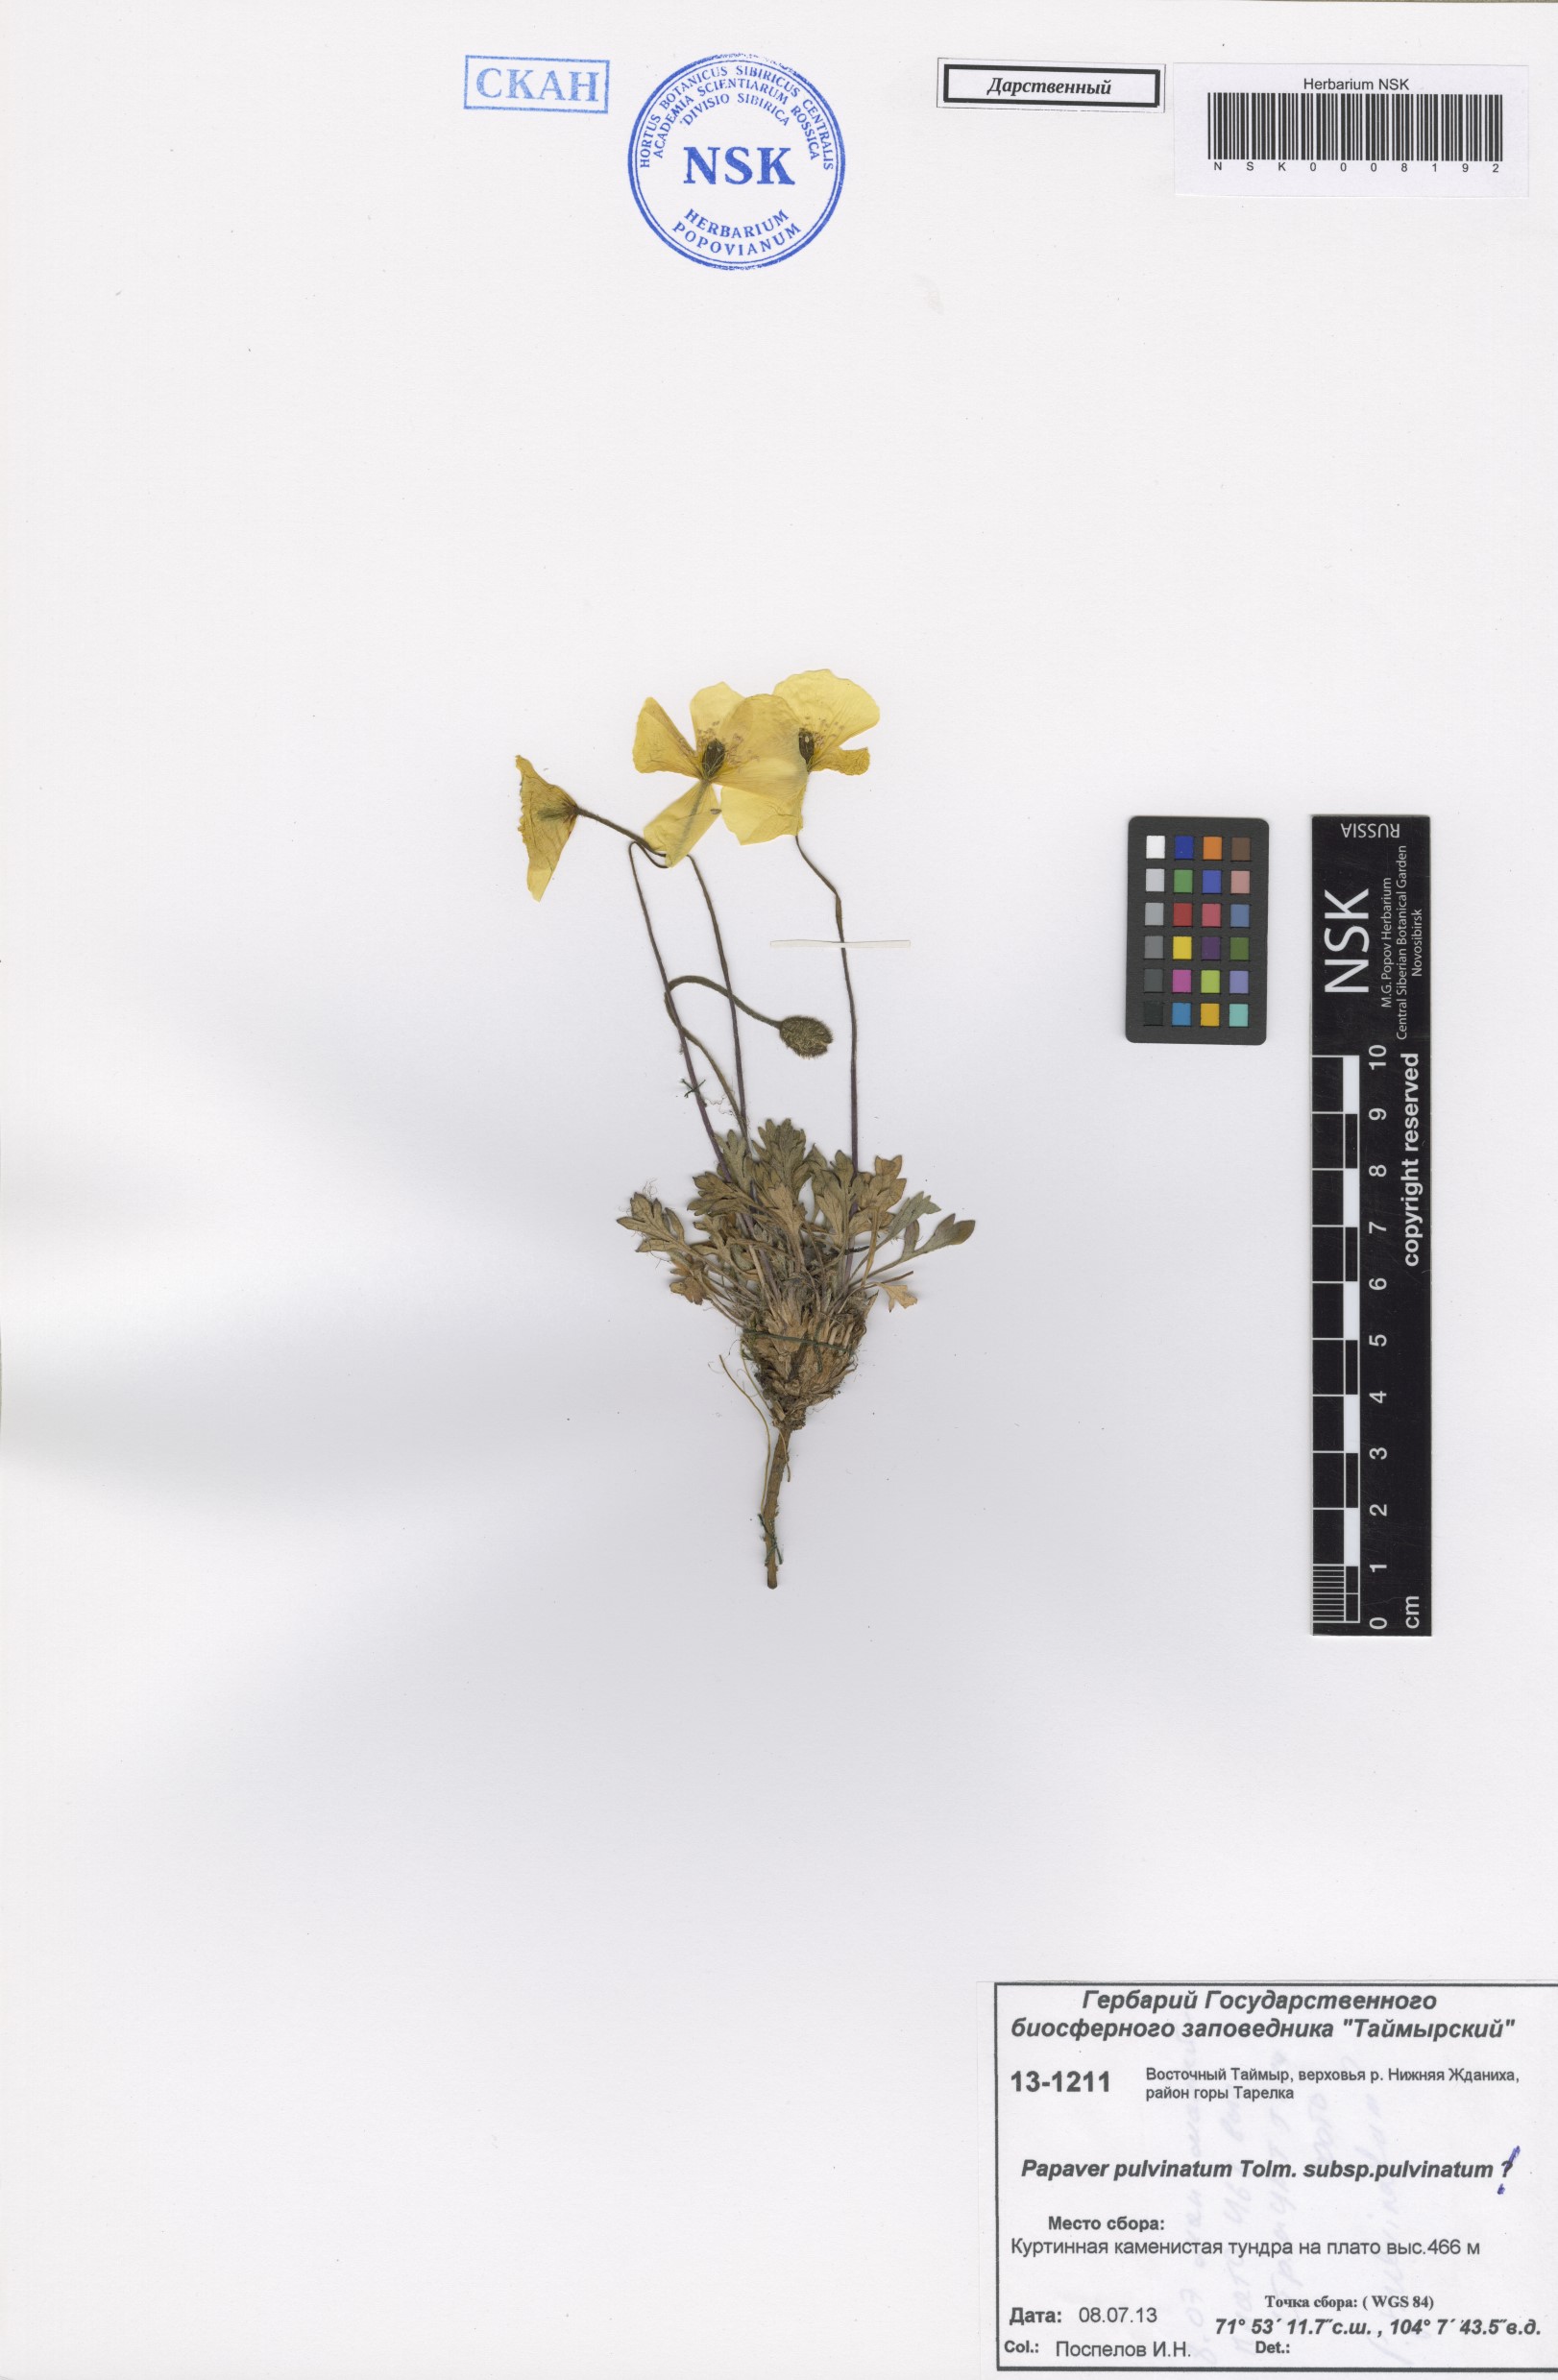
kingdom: Plantae
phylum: Tracheophyta
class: Magnoliopsida
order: Ranunculales
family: Papaveraceae
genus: Papaver
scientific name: Papaver pulvinatum
